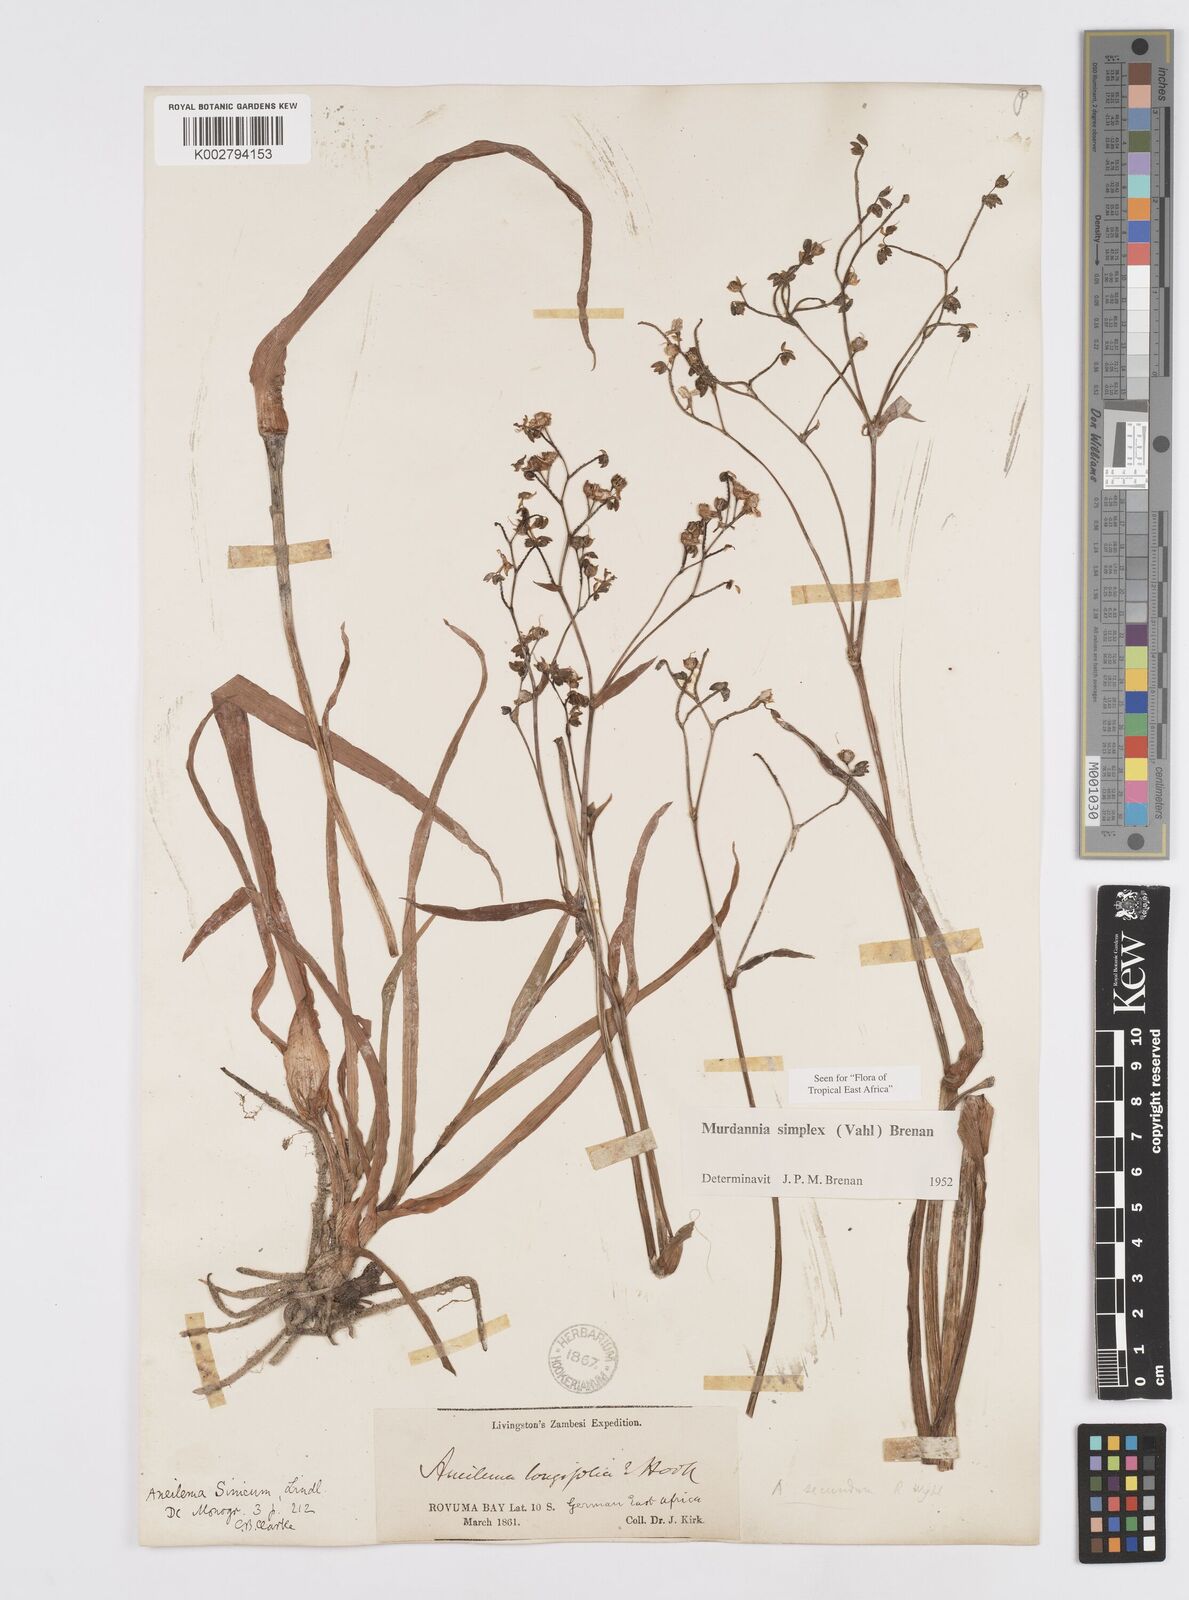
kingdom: Plantae
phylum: Tracheophyta
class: Liliopsida
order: Commelinales
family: Commelinaceae
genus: Murdannia
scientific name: Murdannia simplex
